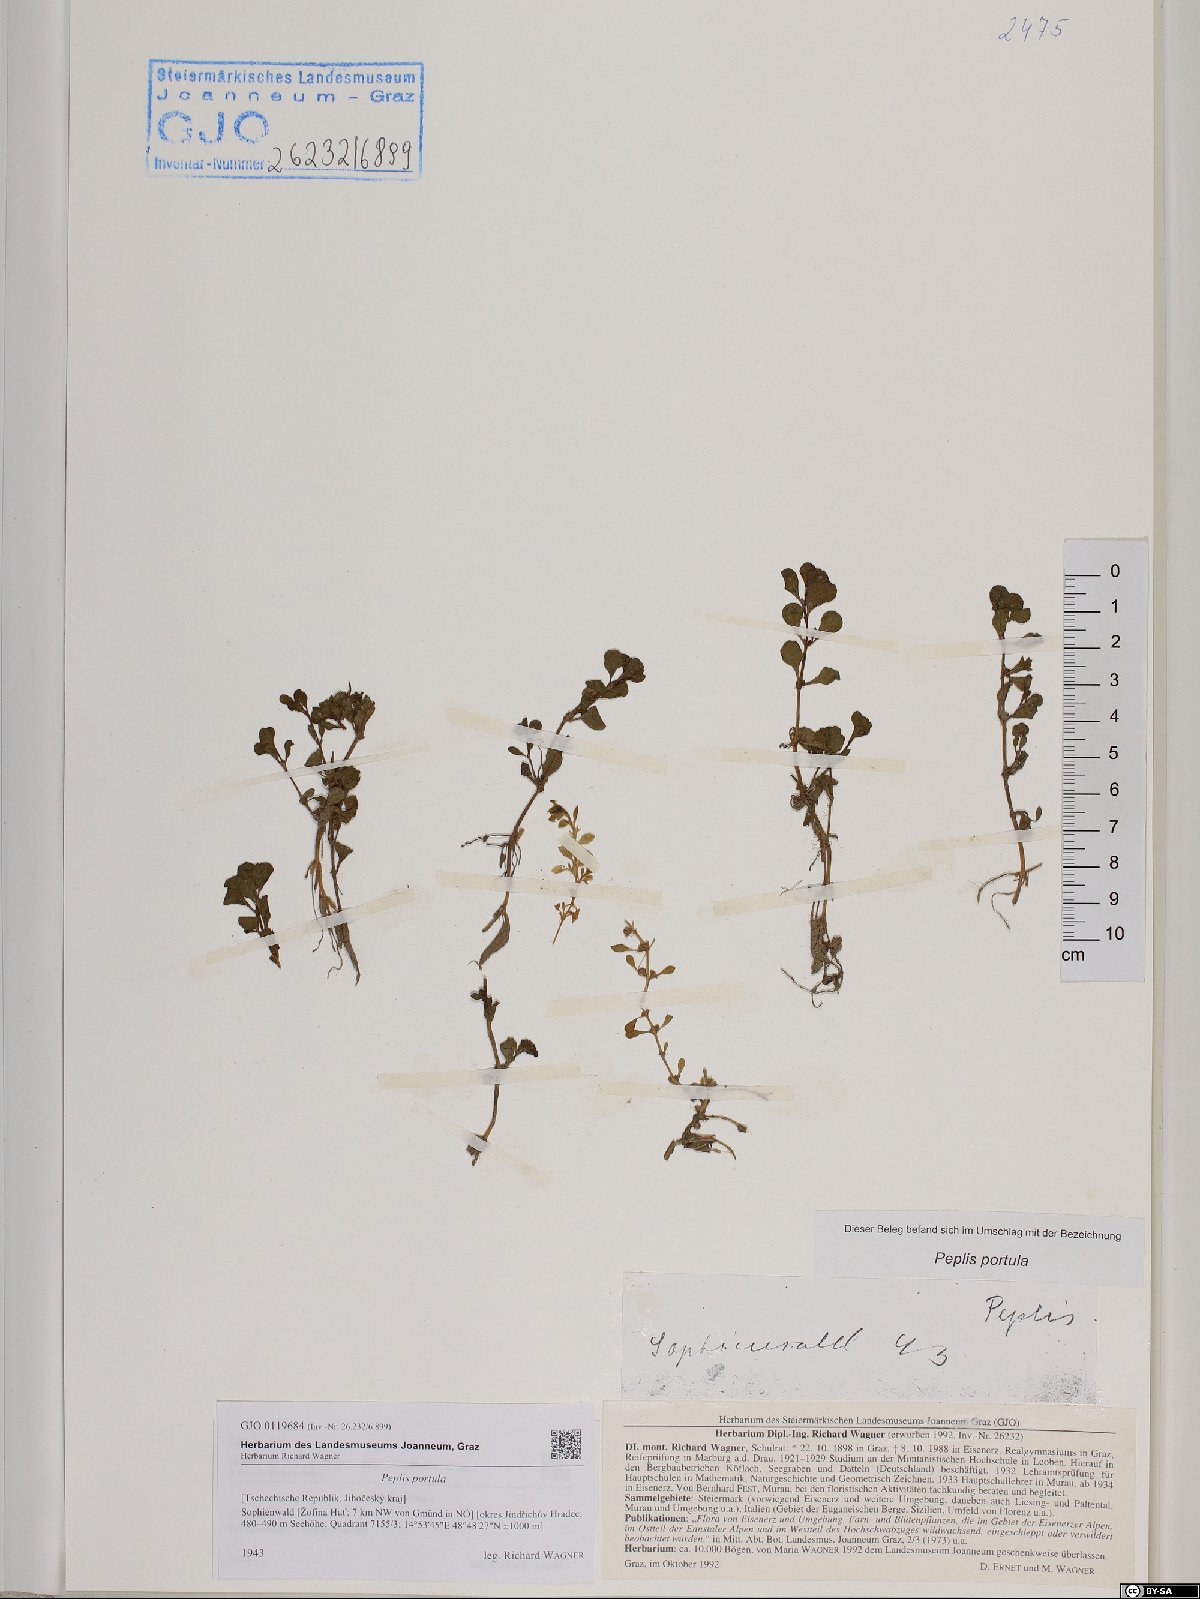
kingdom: Plantae
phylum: Tracheophyta
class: Magnoliopsida
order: Myrtales
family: Lythraceae
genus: Lythrum
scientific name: Lythrum portula
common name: Water purslane
